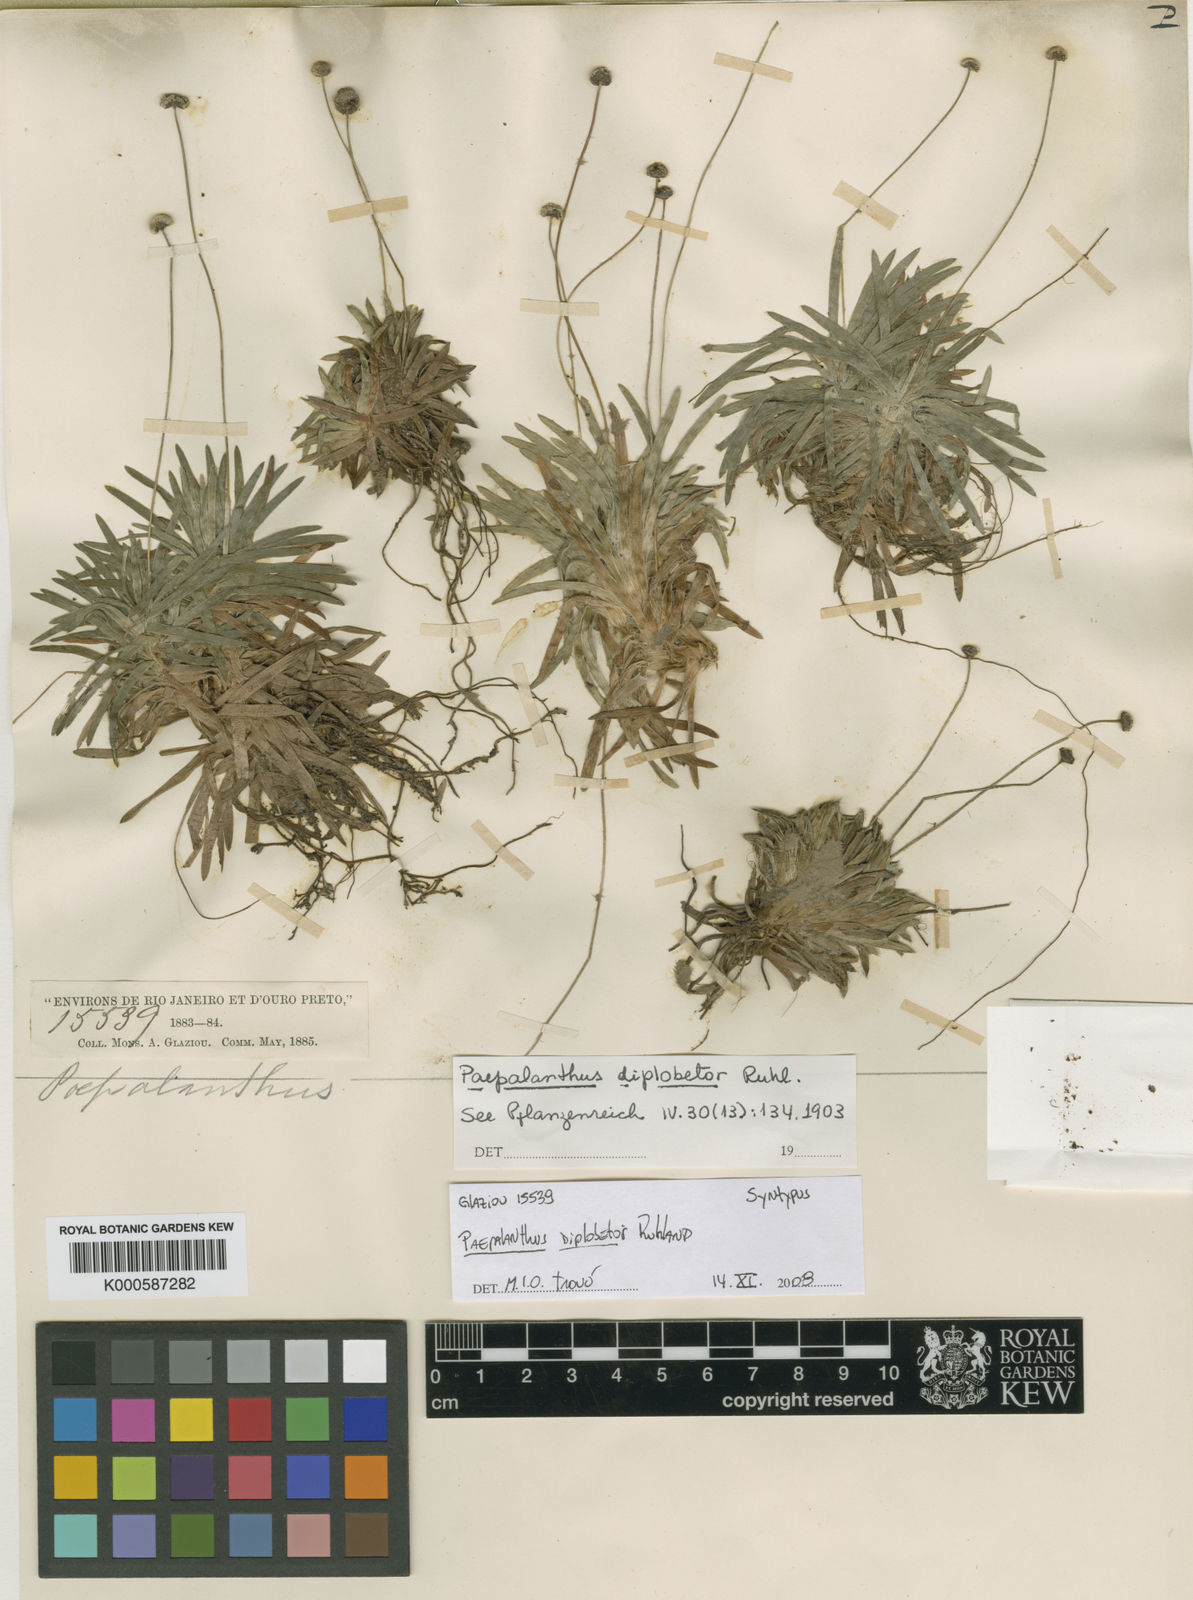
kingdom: Plantae
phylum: Tracheophyta
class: Liliopsida
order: Poales
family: Eriocaulaceae
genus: Paepalanthus
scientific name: Paepalanthus diplobetor
